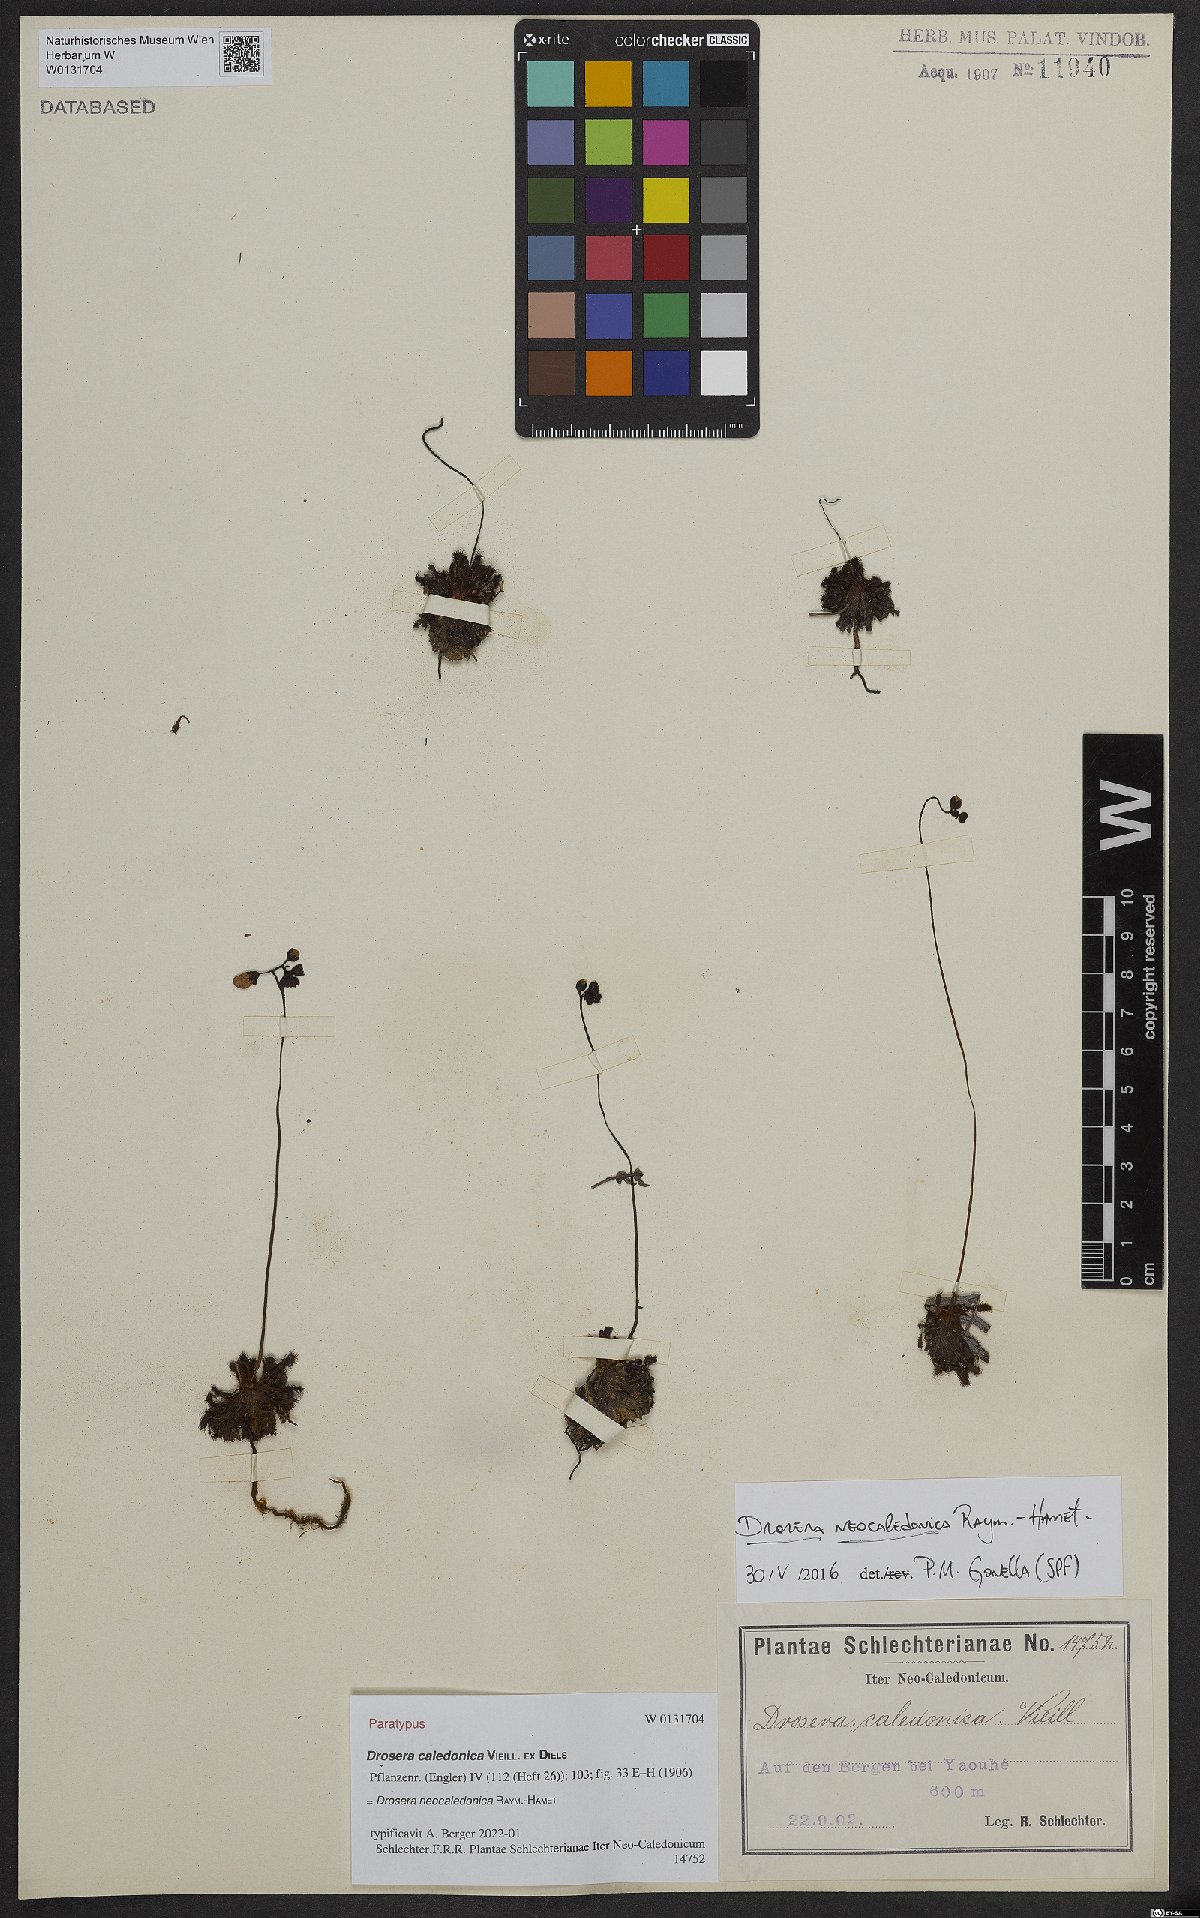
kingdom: Plantae
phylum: Tracheophyta
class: Magnoliopsida
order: Caryophyllales
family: Droseraceae
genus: Drosera
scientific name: Drosera neocaledonica
